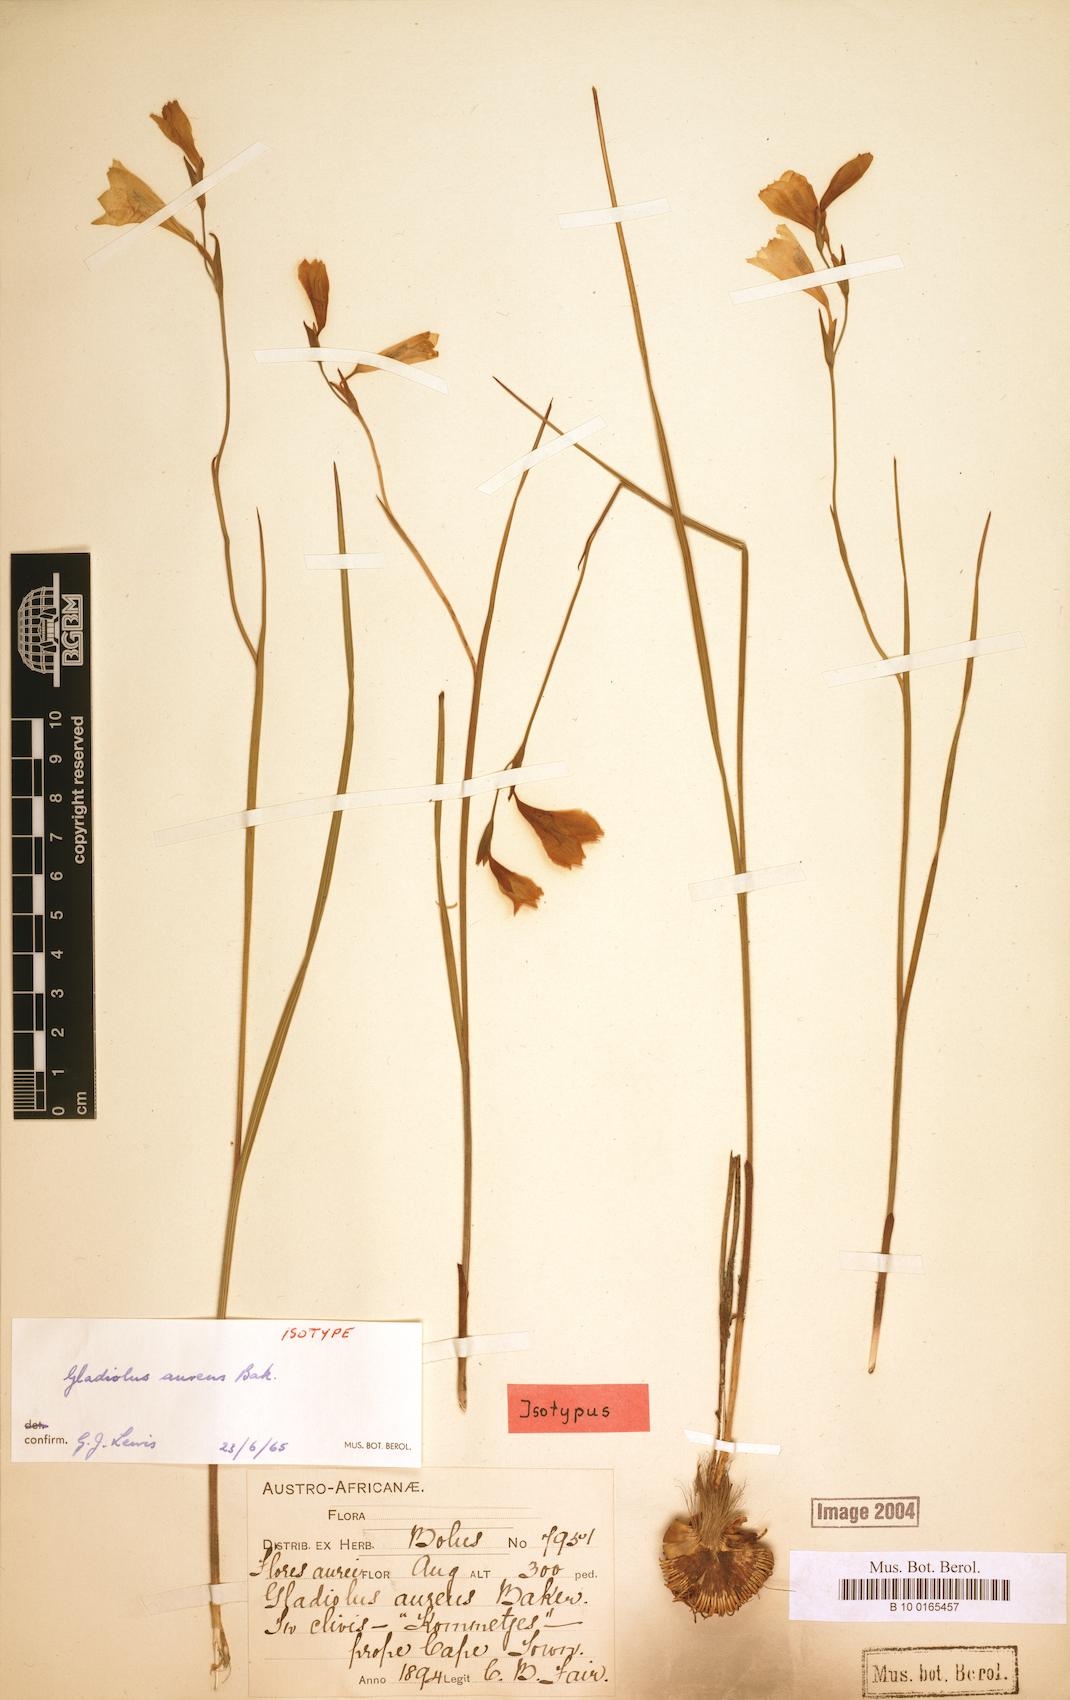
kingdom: Plantae
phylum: Tracheophyta
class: Liliopsida
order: Asparagales
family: Iridaceae
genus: Gladiolus
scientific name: Gladiolus aureus
